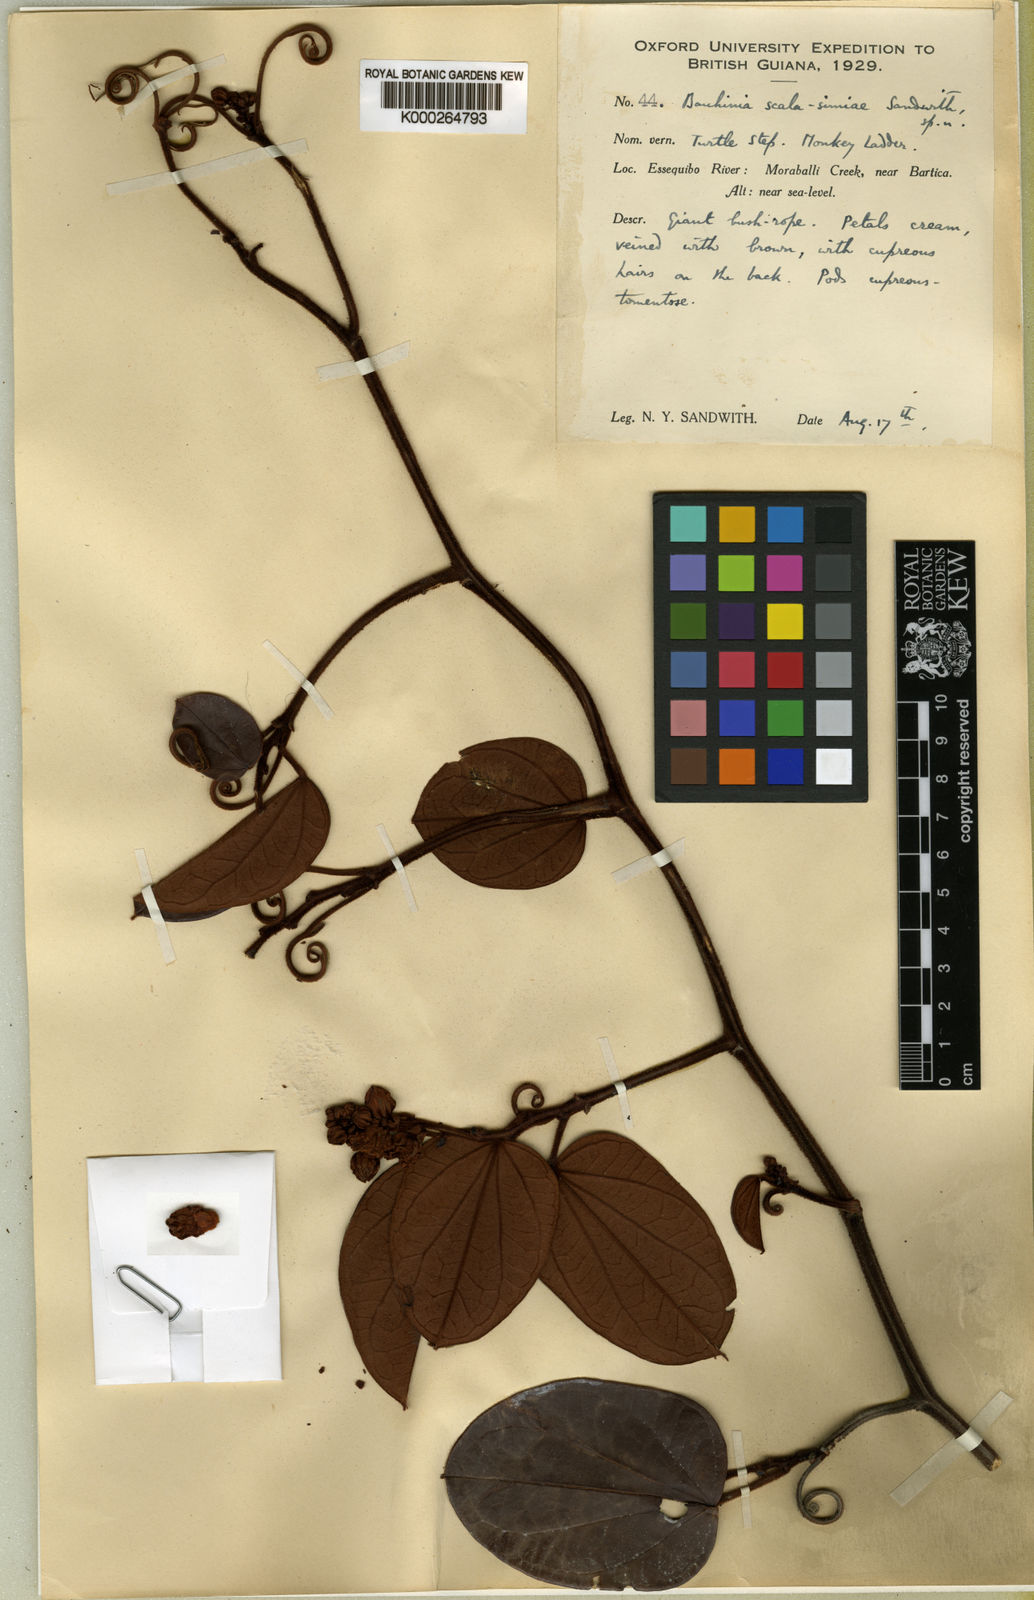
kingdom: Plantae
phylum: Tracheophyta
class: Magnoliopsida
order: Fabales
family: Fabaceae
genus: Schnella
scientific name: Schnella scala-simiae
